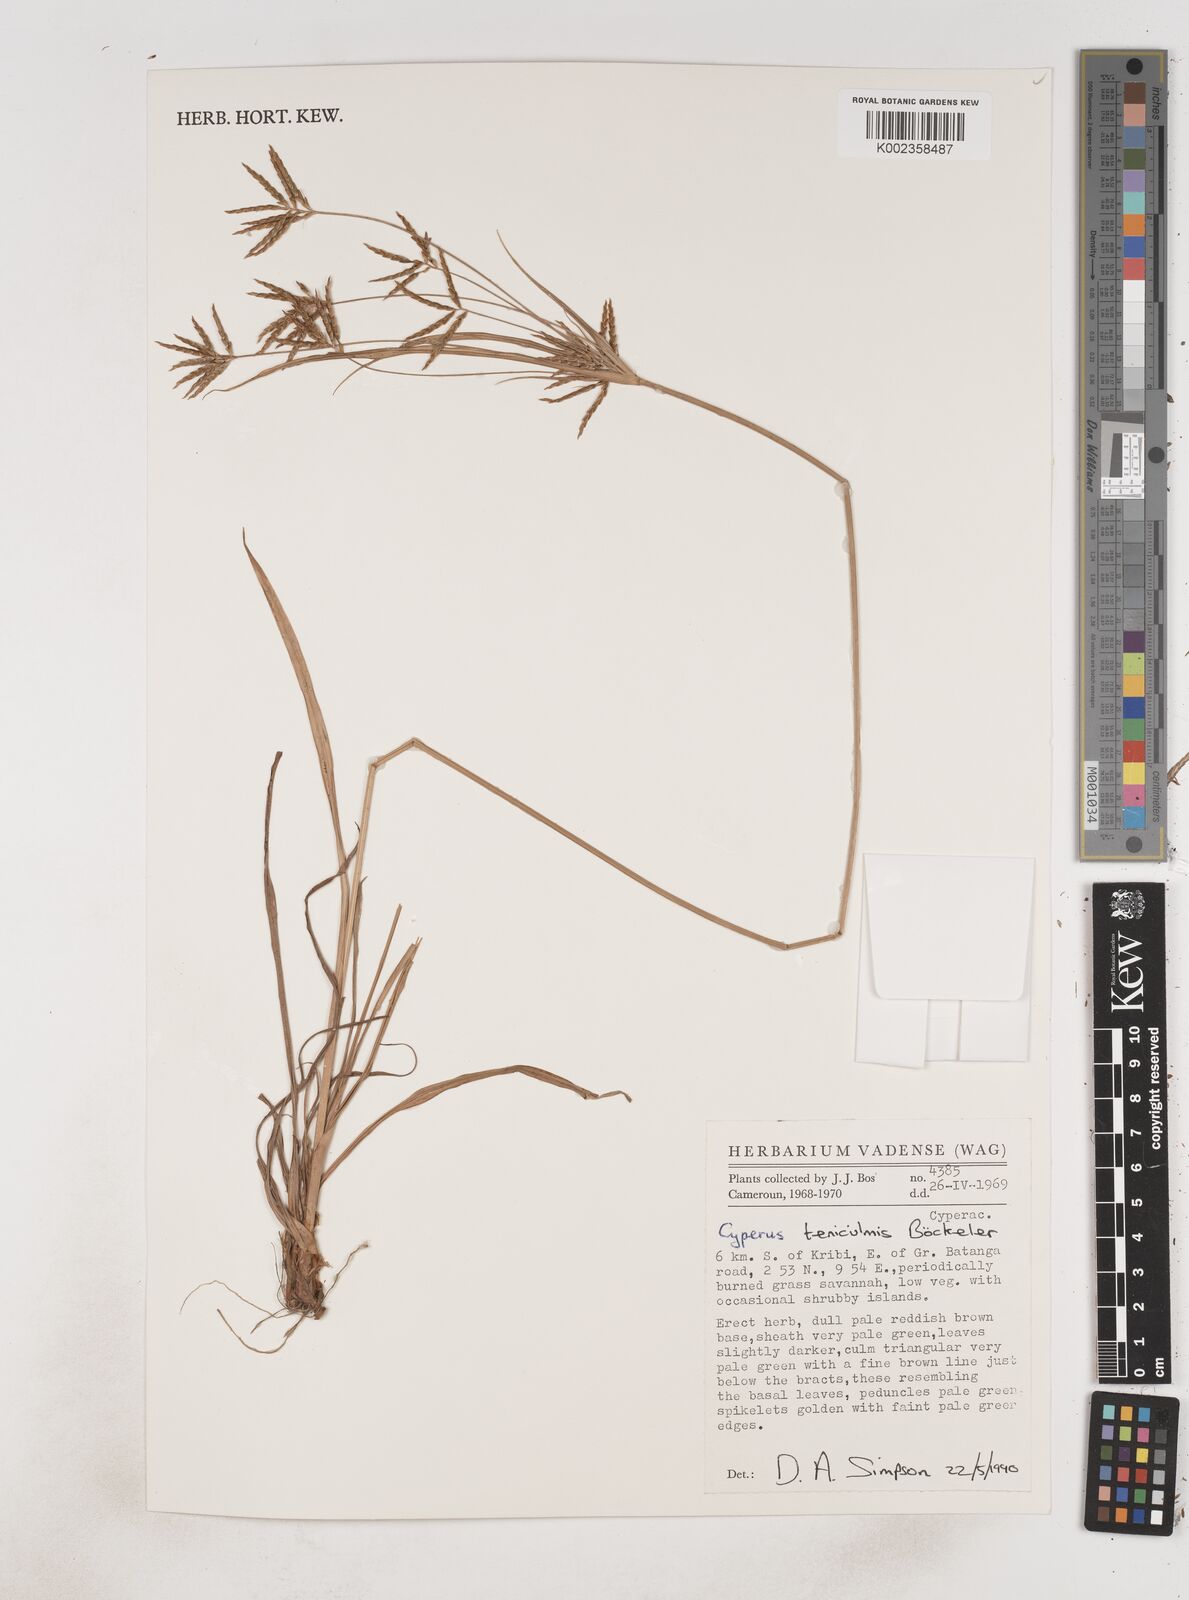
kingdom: Plantae
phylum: Tracheophyta
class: Liliopsida
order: Poales
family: Cyperaceae
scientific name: Cyperaceae
